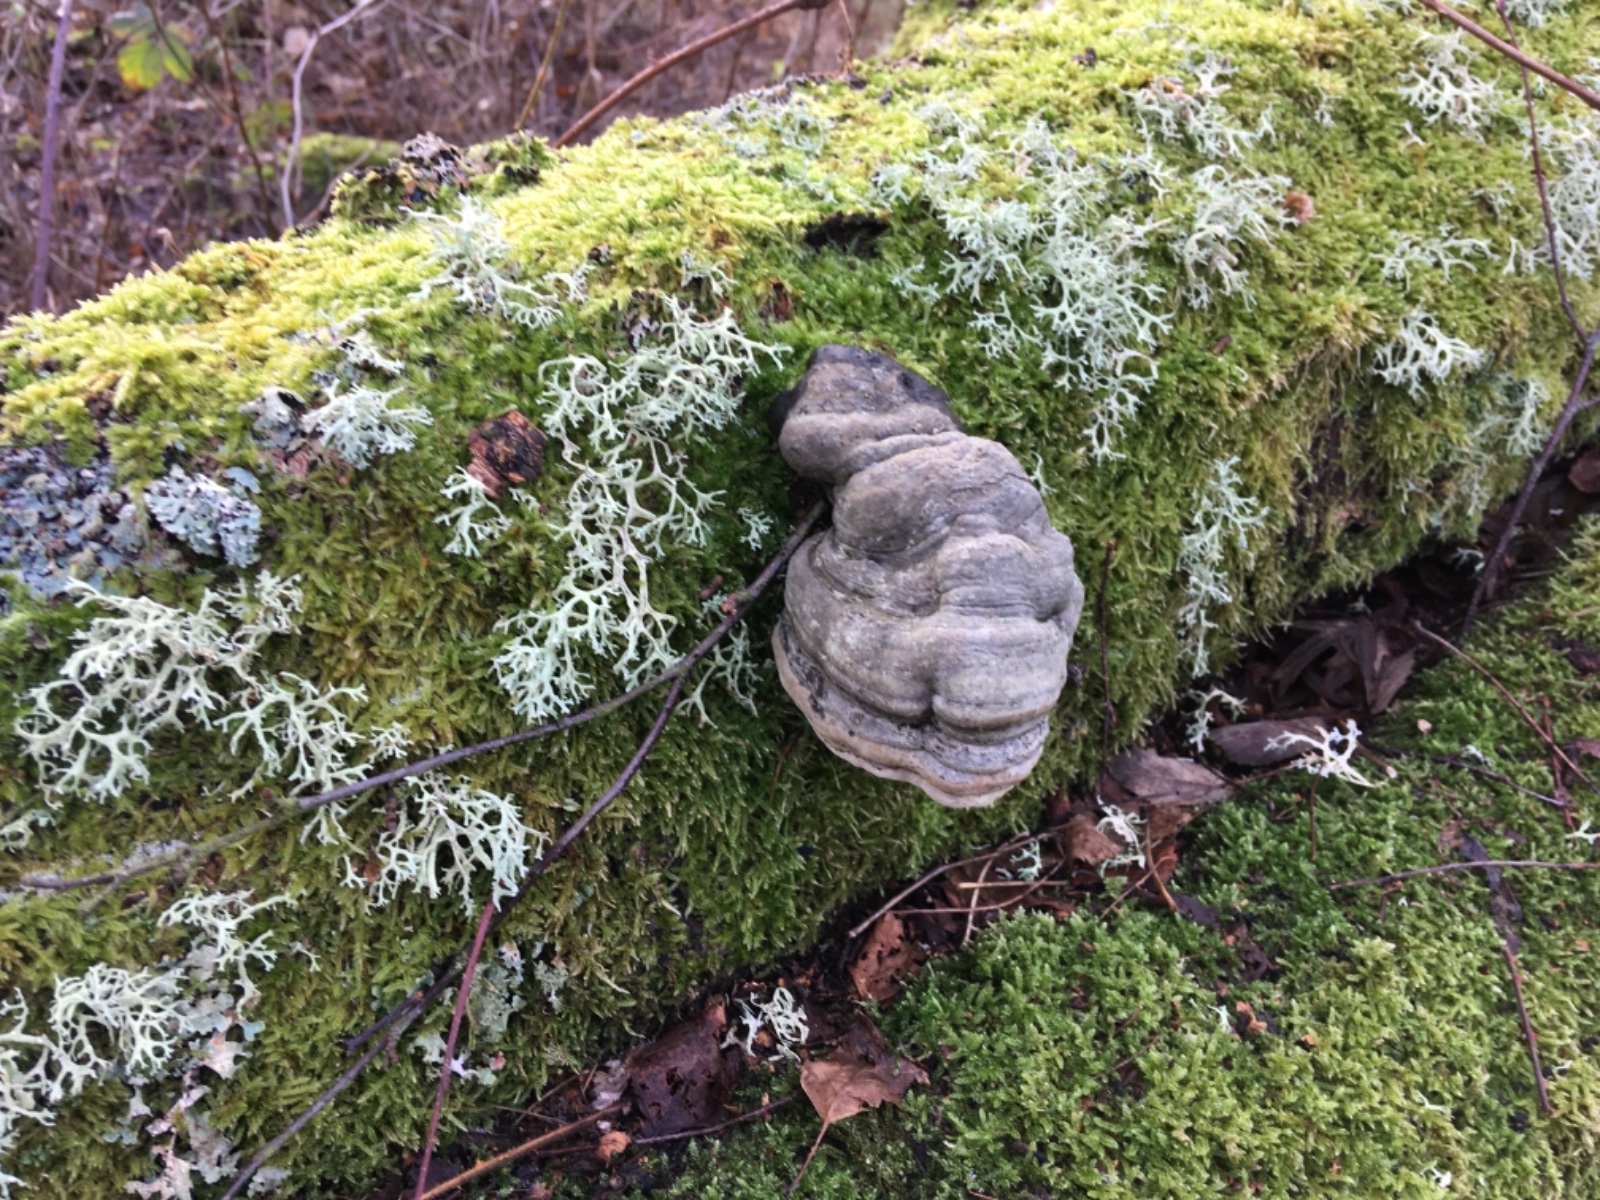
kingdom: Fungi
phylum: Basidiomycota
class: Agaricomycetes
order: Polyporales
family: Polyporaceae
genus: Fomes
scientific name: Fomes fomentarius
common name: tøndersvamp
